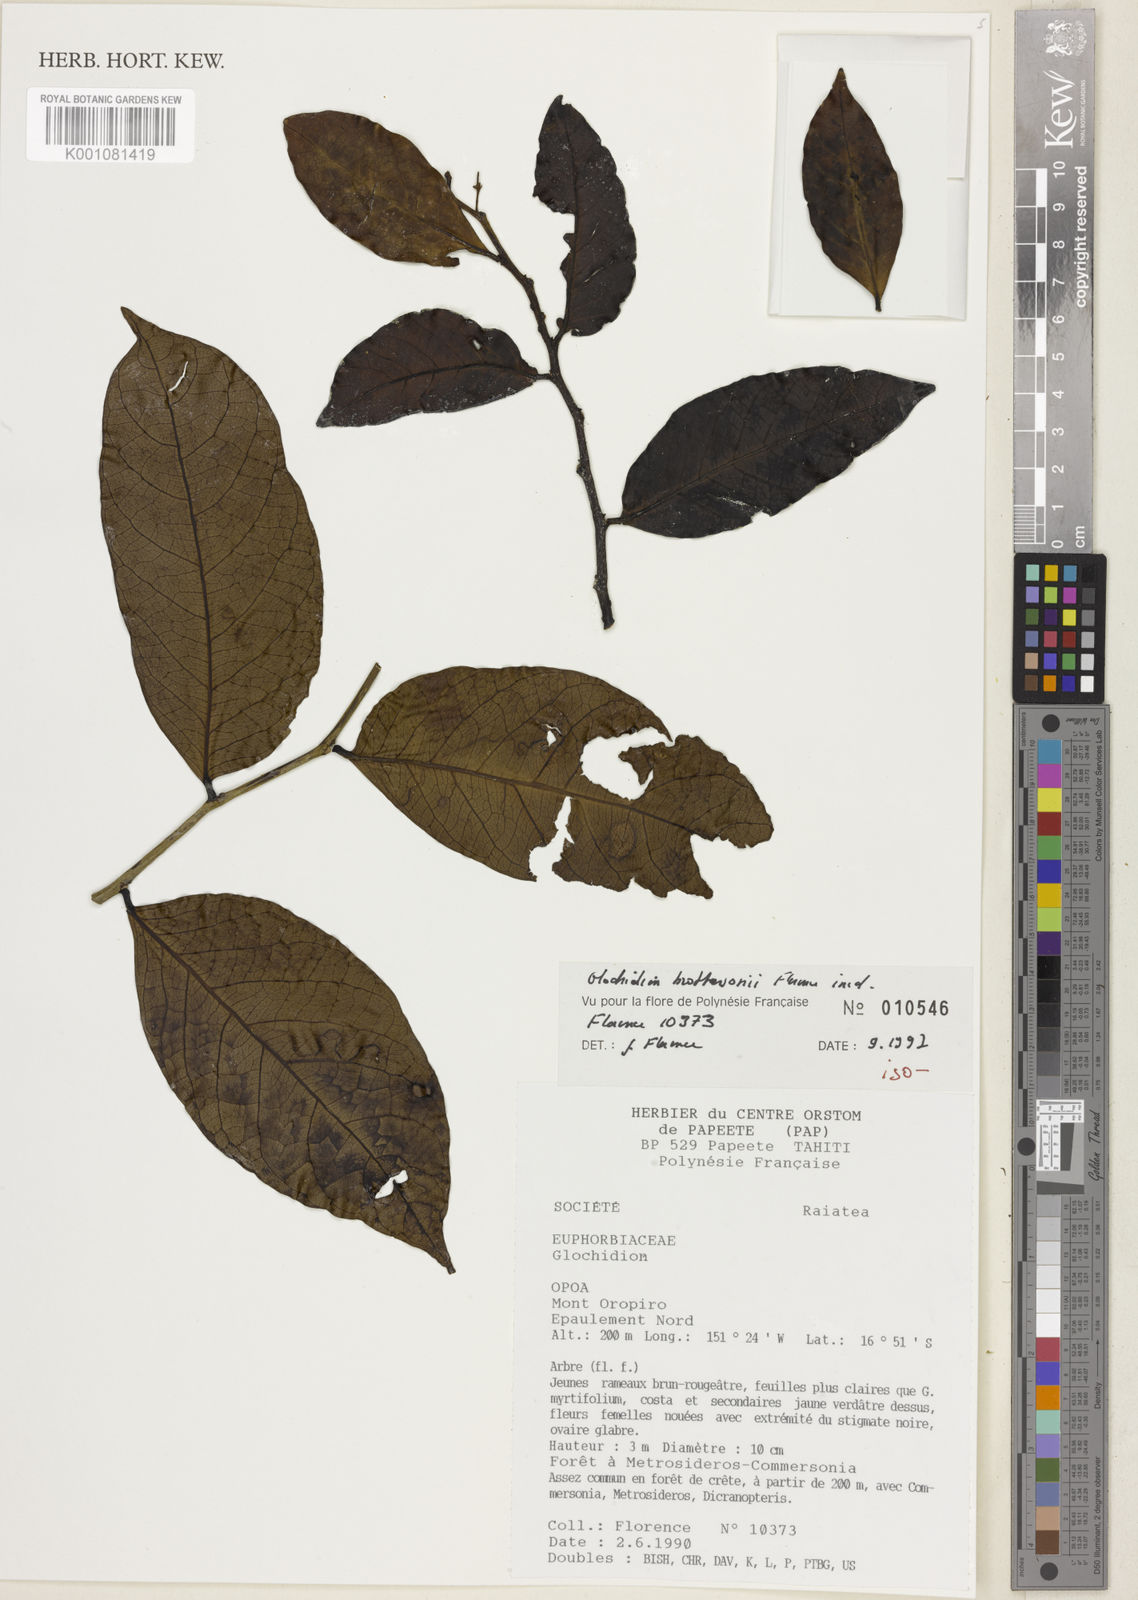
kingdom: Plantae
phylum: Tracheophyta
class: Magnoliopsida
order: Malpighiales
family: Phyllanthaceae
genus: Glochidion
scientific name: Glochidion brothersonii
